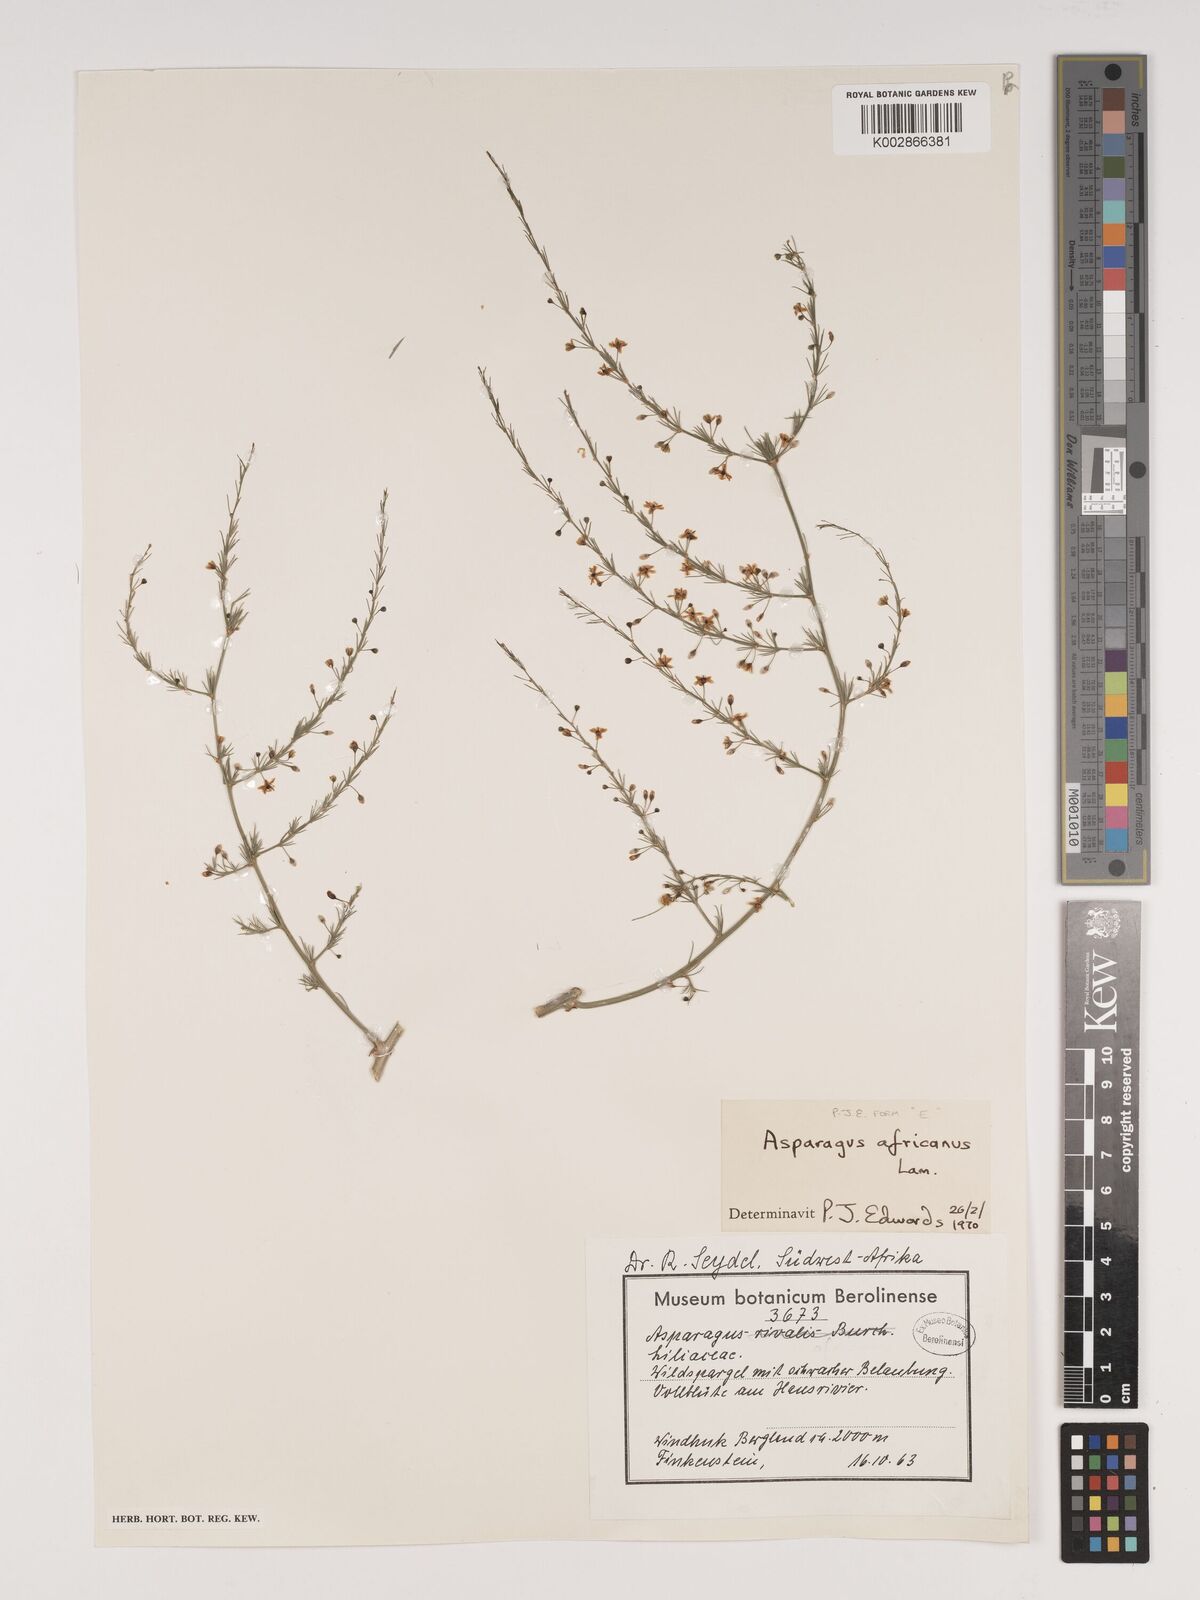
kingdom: Plantae
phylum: Tracheophyta
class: Liliopsida
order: Asparagales
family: Asparagaceae
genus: Asparagus
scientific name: Asparagus africanus
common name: Asparagus-fern
